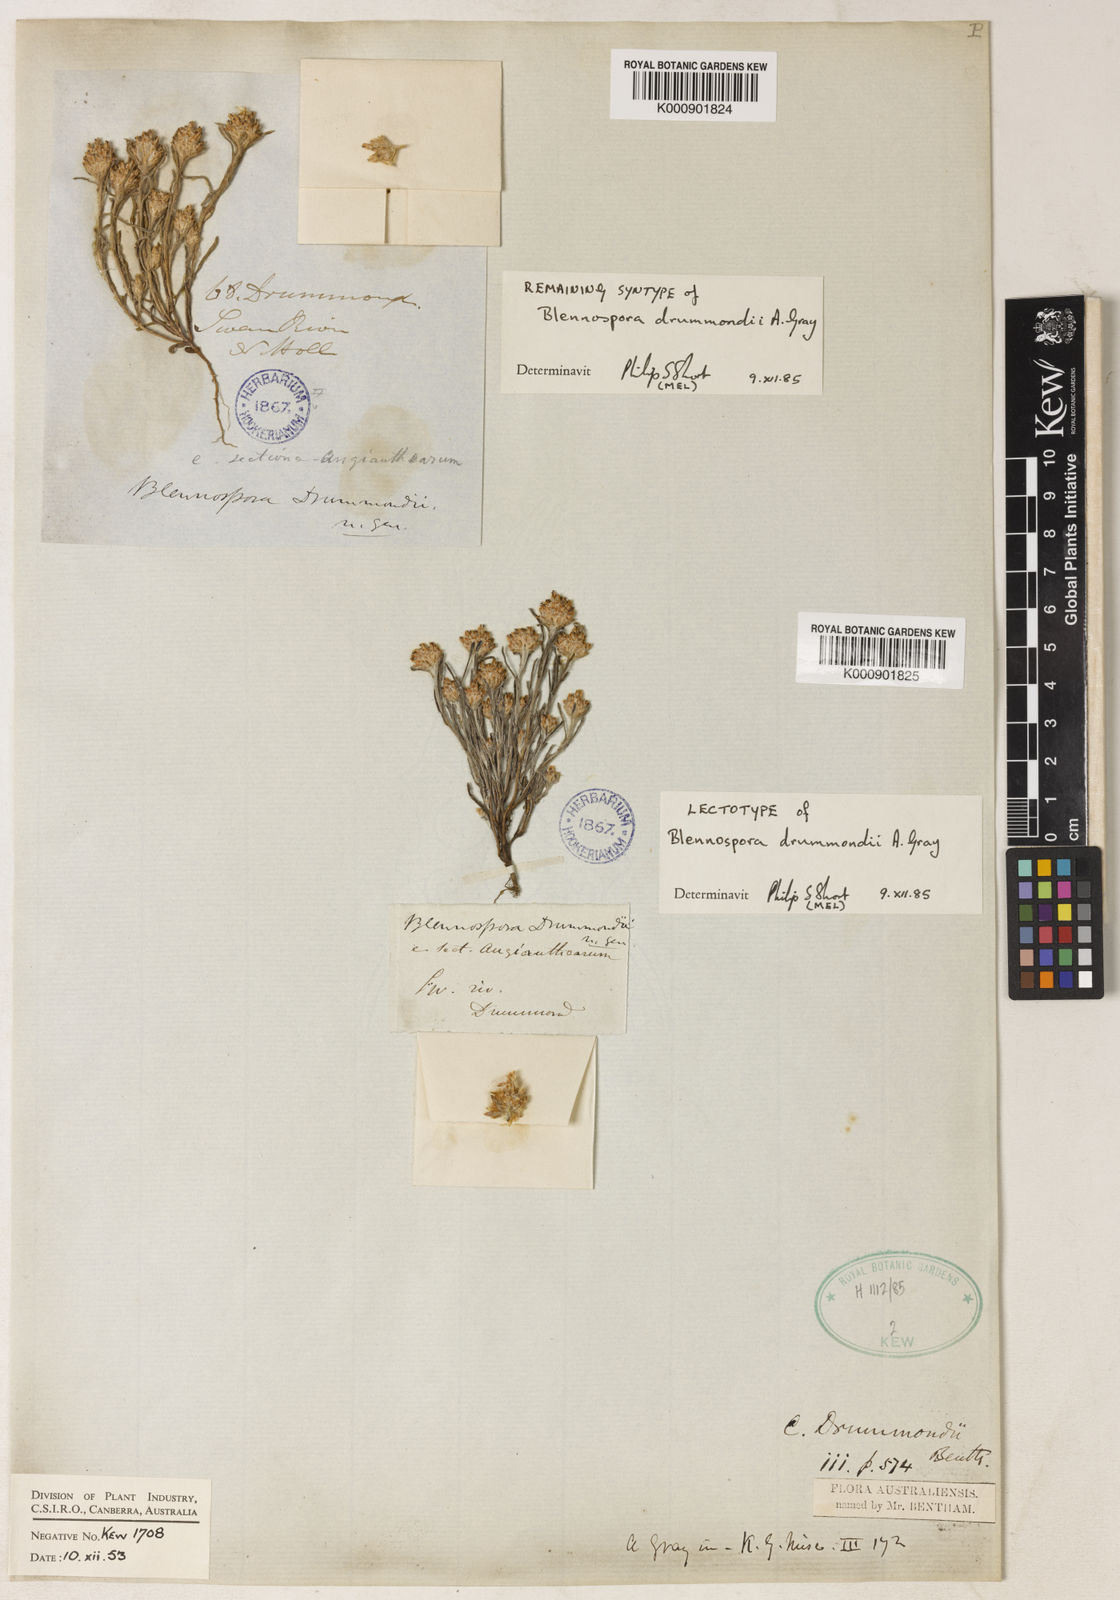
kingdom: Plantae
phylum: Tracheophyta
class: Magnoliopsida
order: Asterales
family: Asteraceae
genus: Blennospora
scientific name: Blennospora drummondii
